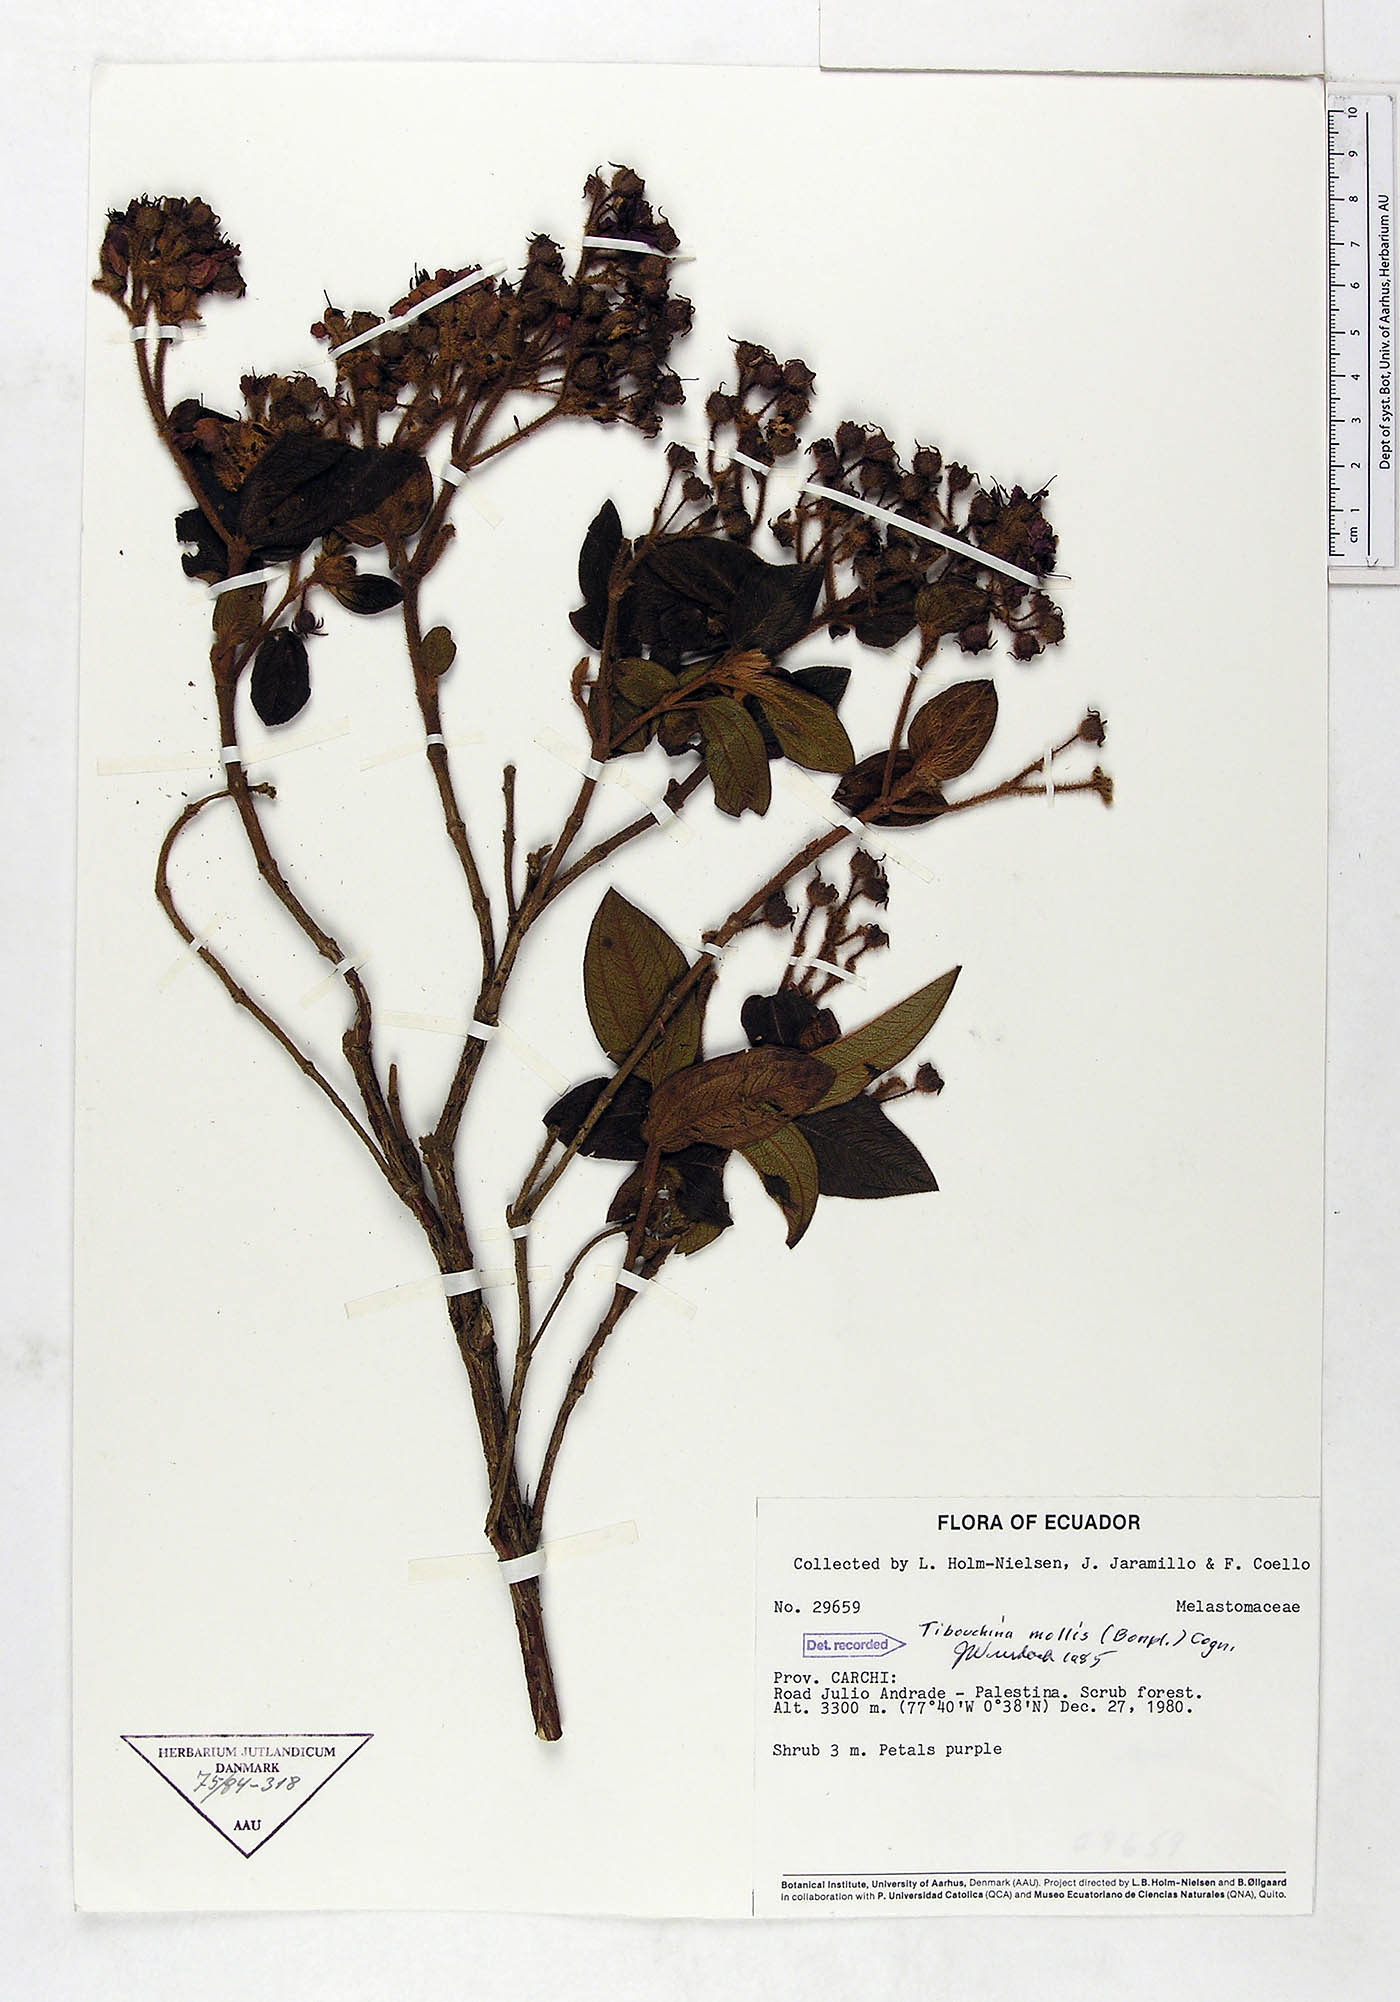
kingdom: Plantae
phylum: Tracheophyta
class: Magnoliopsida
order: Myrtales
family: Melastomataceae
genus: Chaetogastra
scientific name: Chaetogastra mollis
